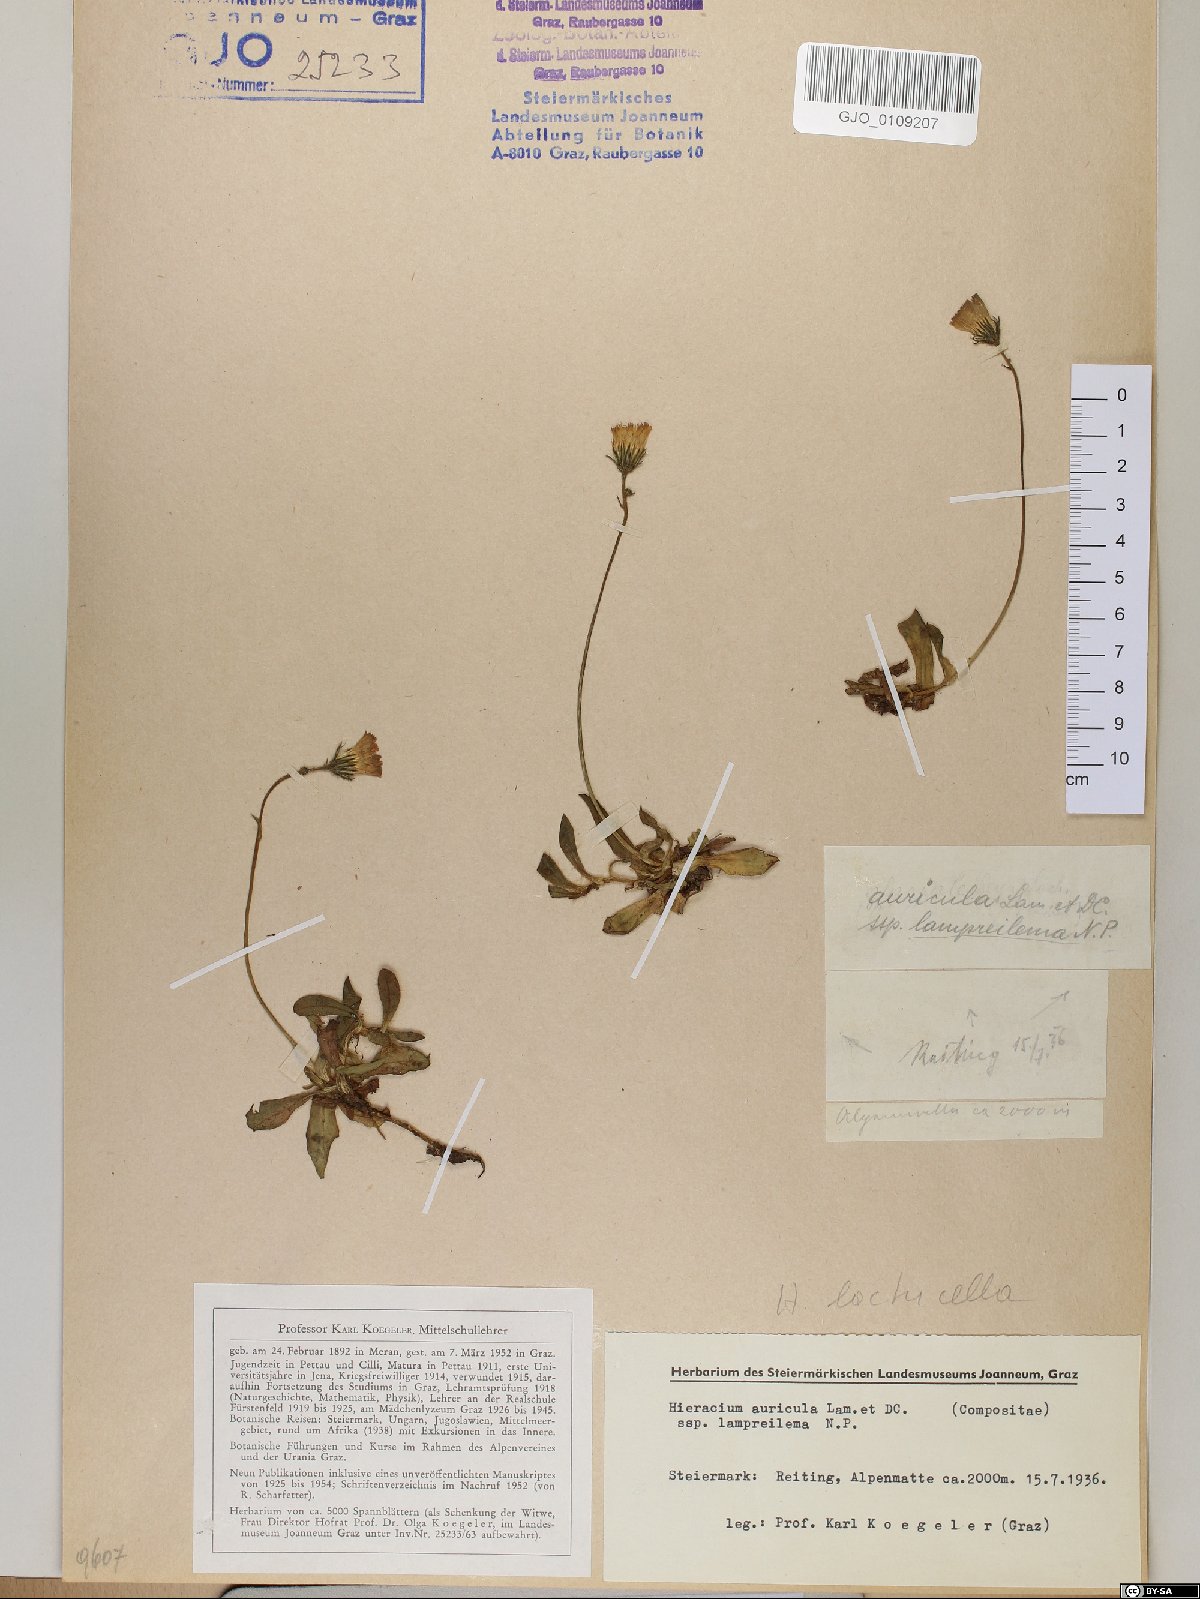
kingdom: Plantae
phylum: Tracheophyta
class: Magnoliopsida
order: Asterales
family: Asteraceae
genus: Hieracium
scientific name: Hieracium auricula
